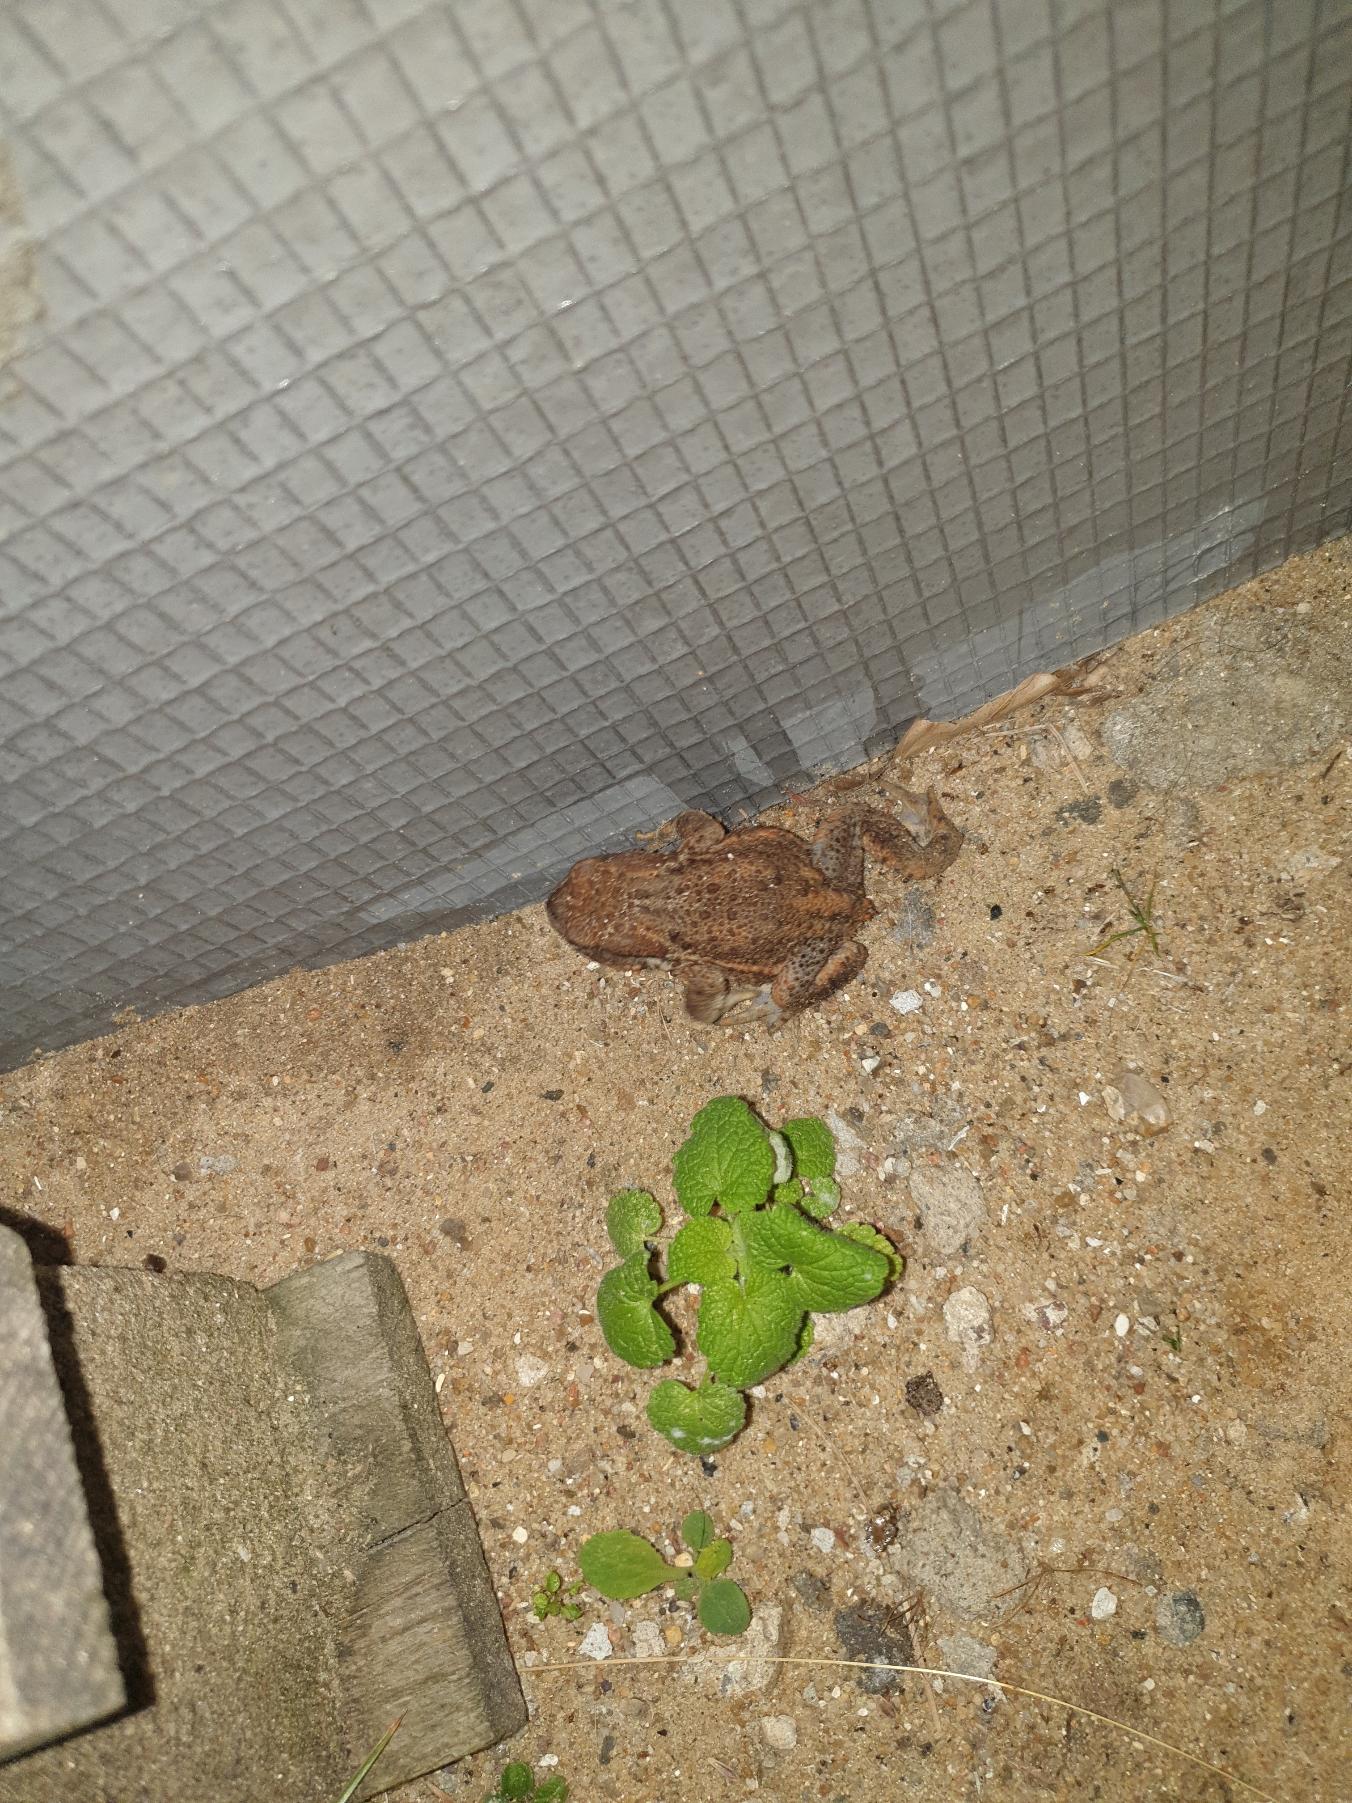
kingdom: Animalia
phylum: Chordata
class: Amphibia
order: Anura
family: Bufonidae
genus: Bufo
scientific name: Bufo bufo
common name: Skrubtudse
